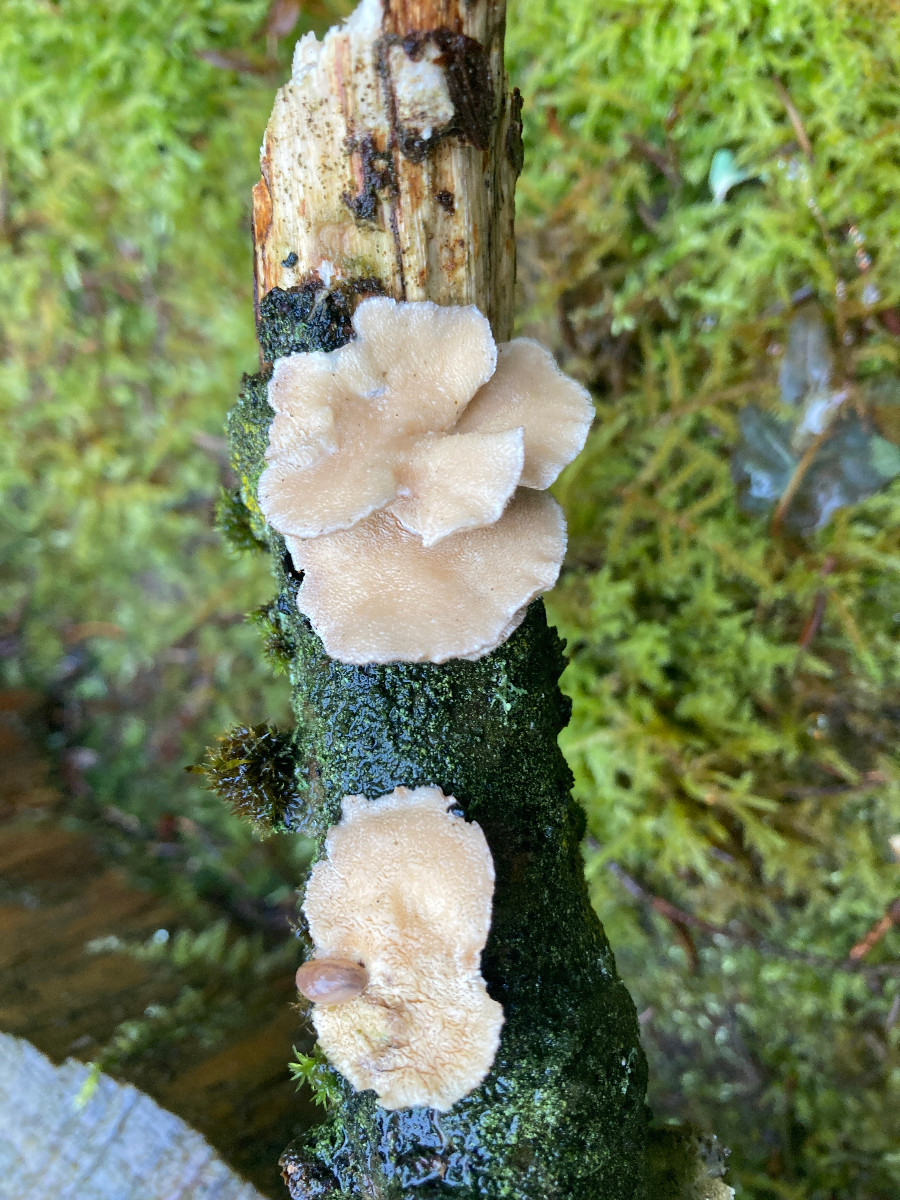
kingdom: Fungi
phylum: Basidiomycota
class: Agaricomycetes
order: Polyporales
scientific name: Polyporales
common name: poresvampordenen
